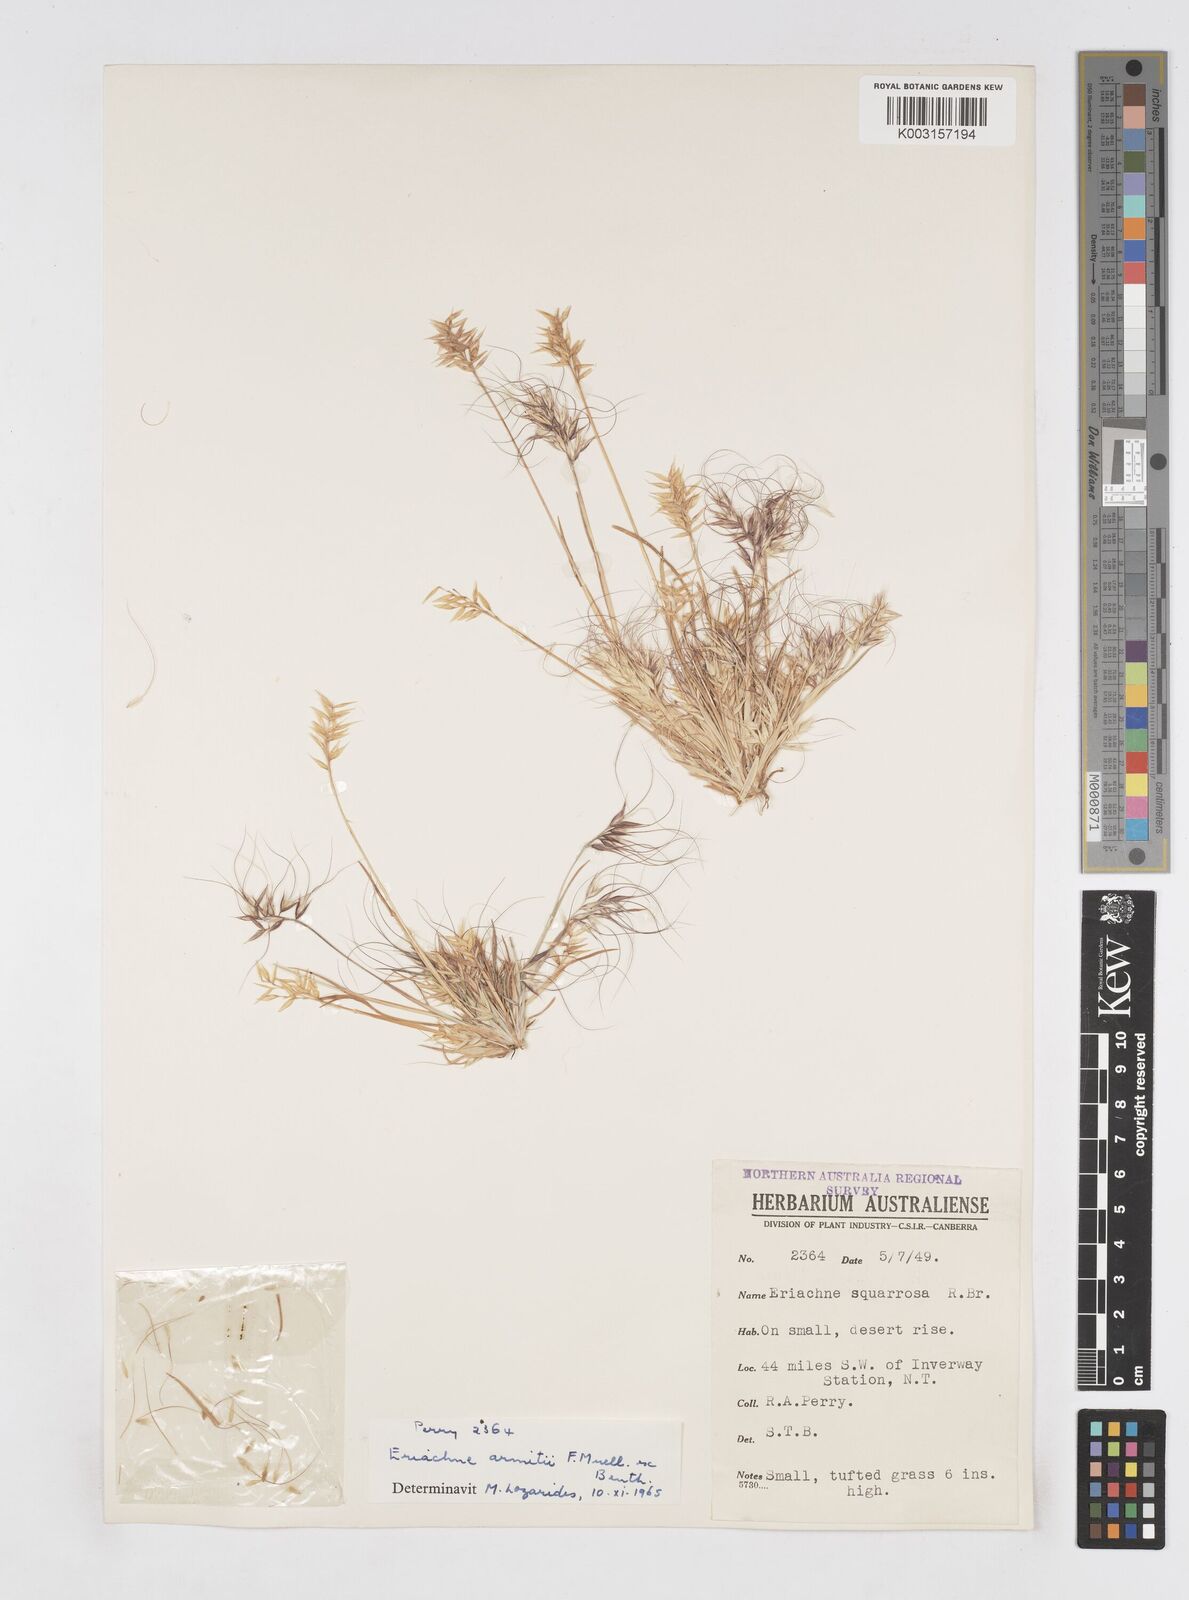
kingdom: Plantae
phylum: Tracheophyta
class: Liliopsida
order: Poales
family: Poaceae
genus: Eriachne
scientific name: Eriachne armitii
